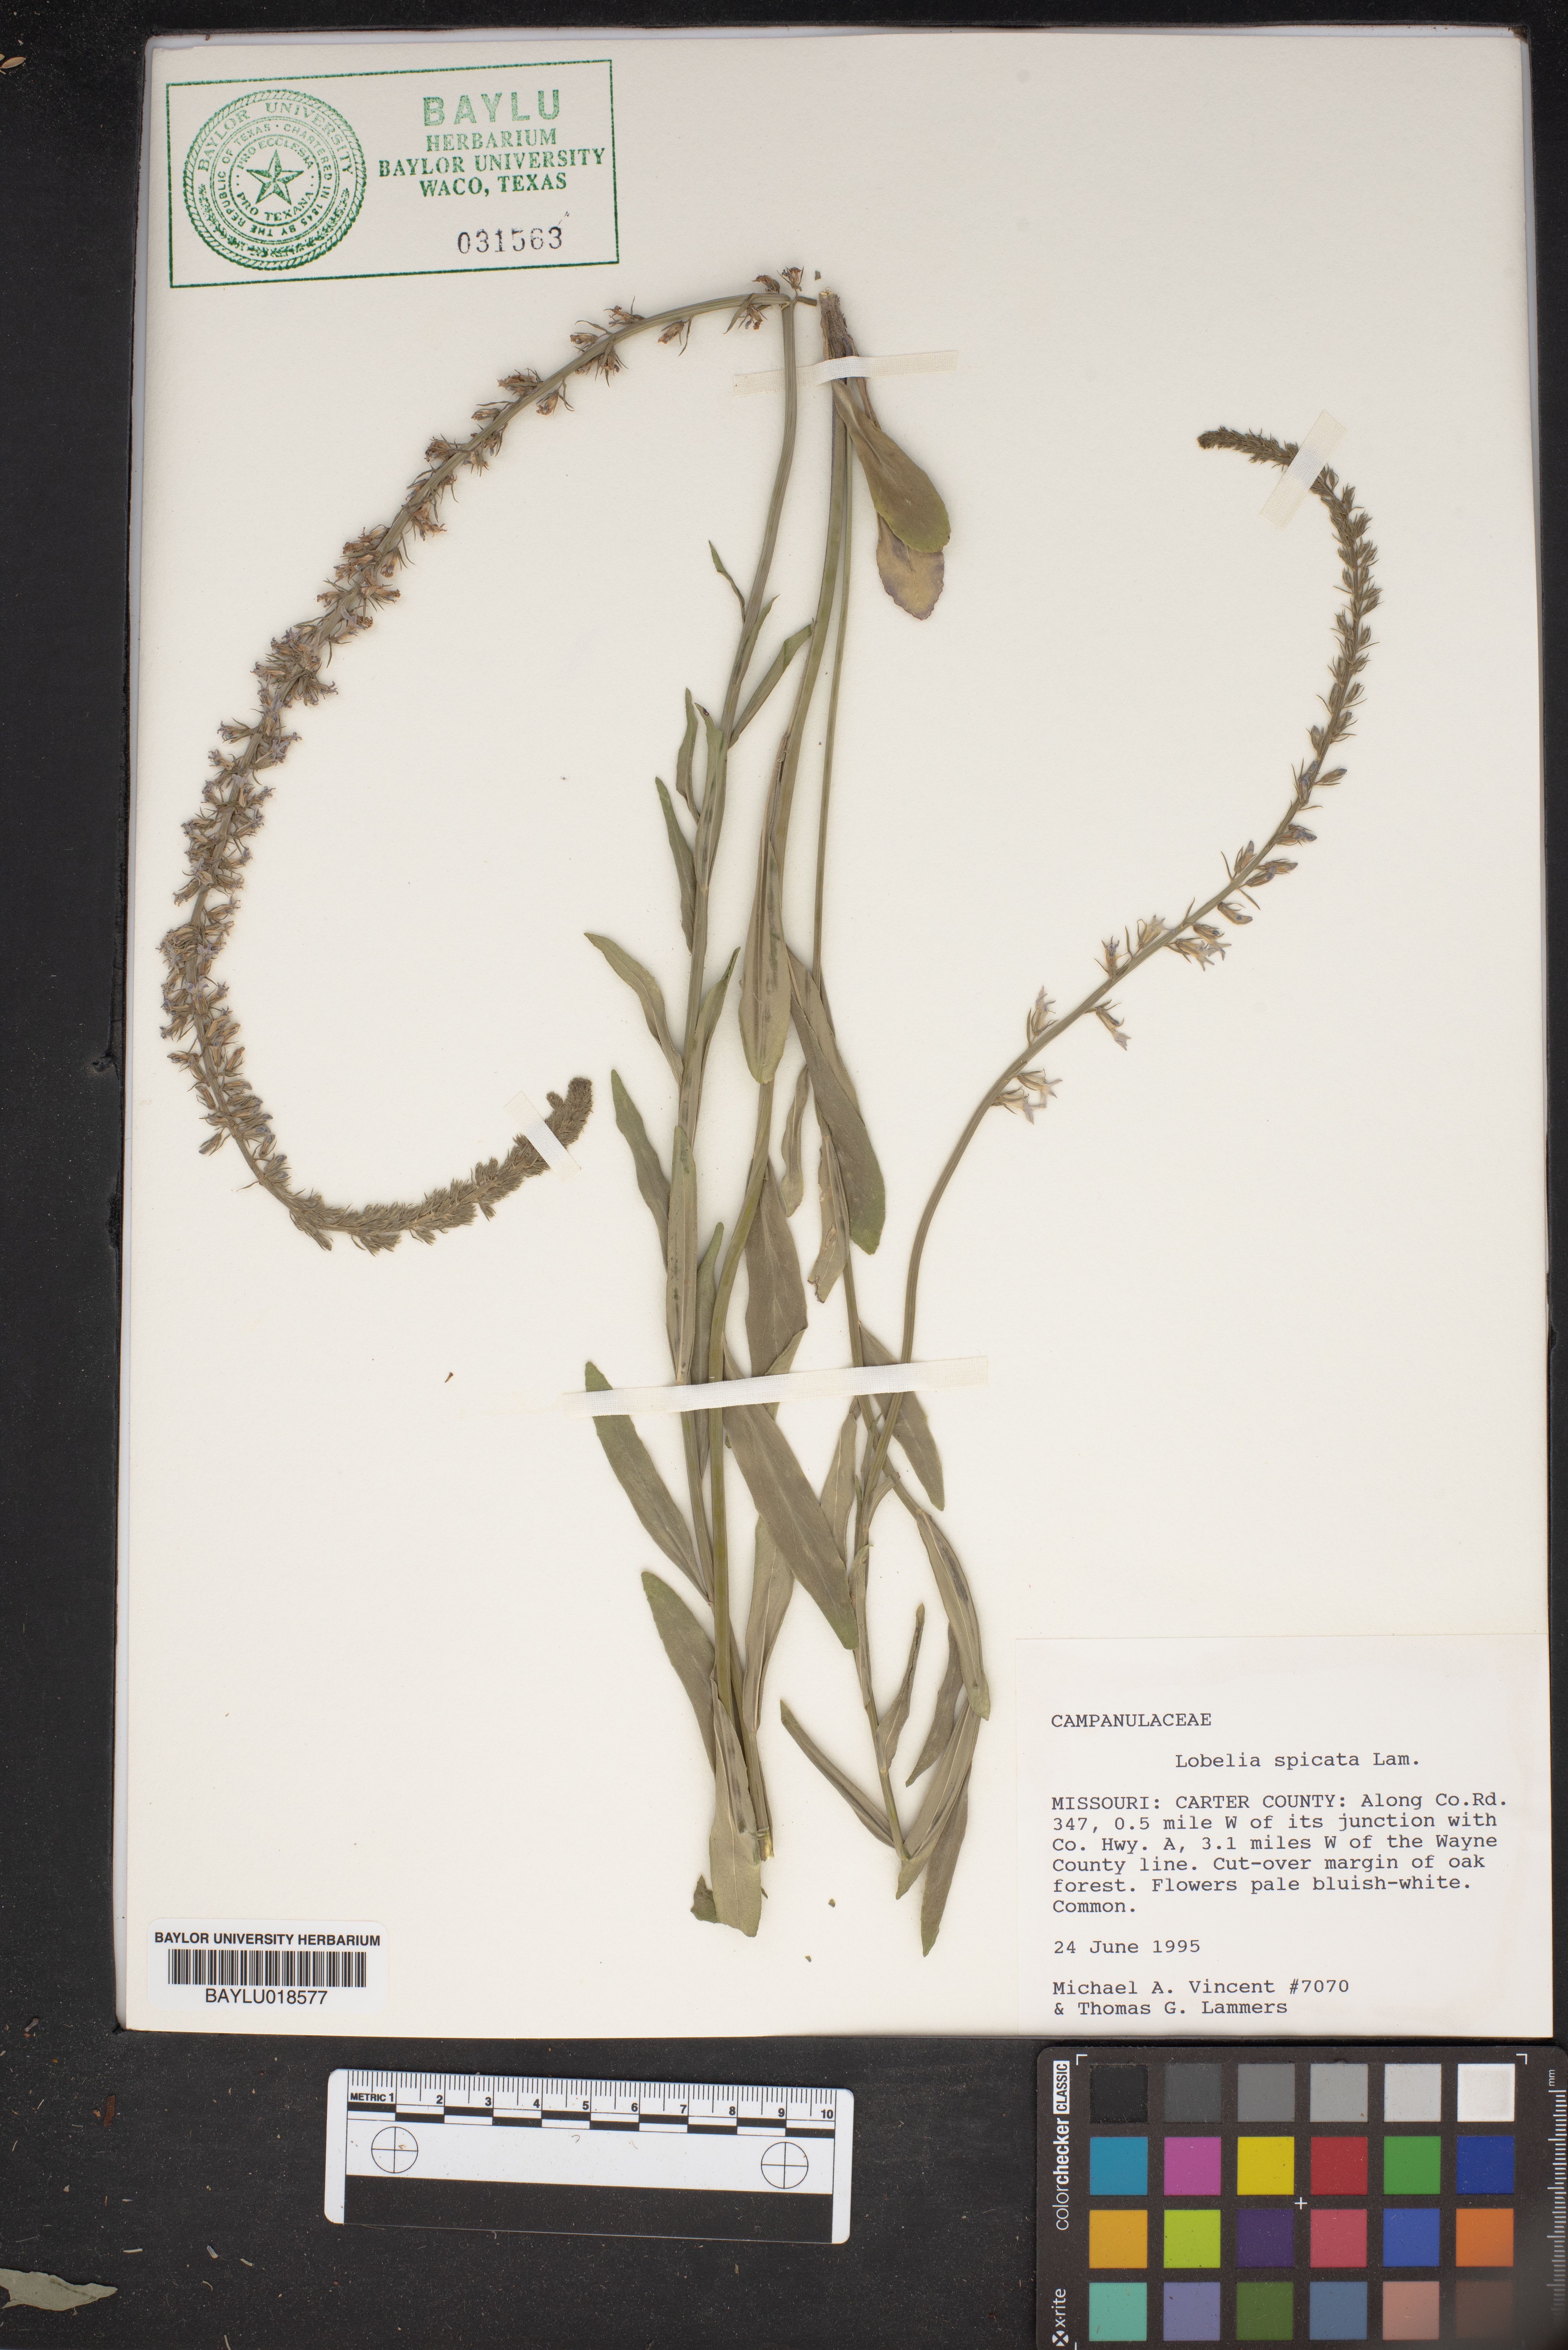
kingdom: Plantae
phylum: Tracheophyta
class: Magnoliopsida
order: Asterales
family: Campanulaceae
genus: Lobelia
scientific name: Lobelia spicata
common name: Pale-spike lobelia
